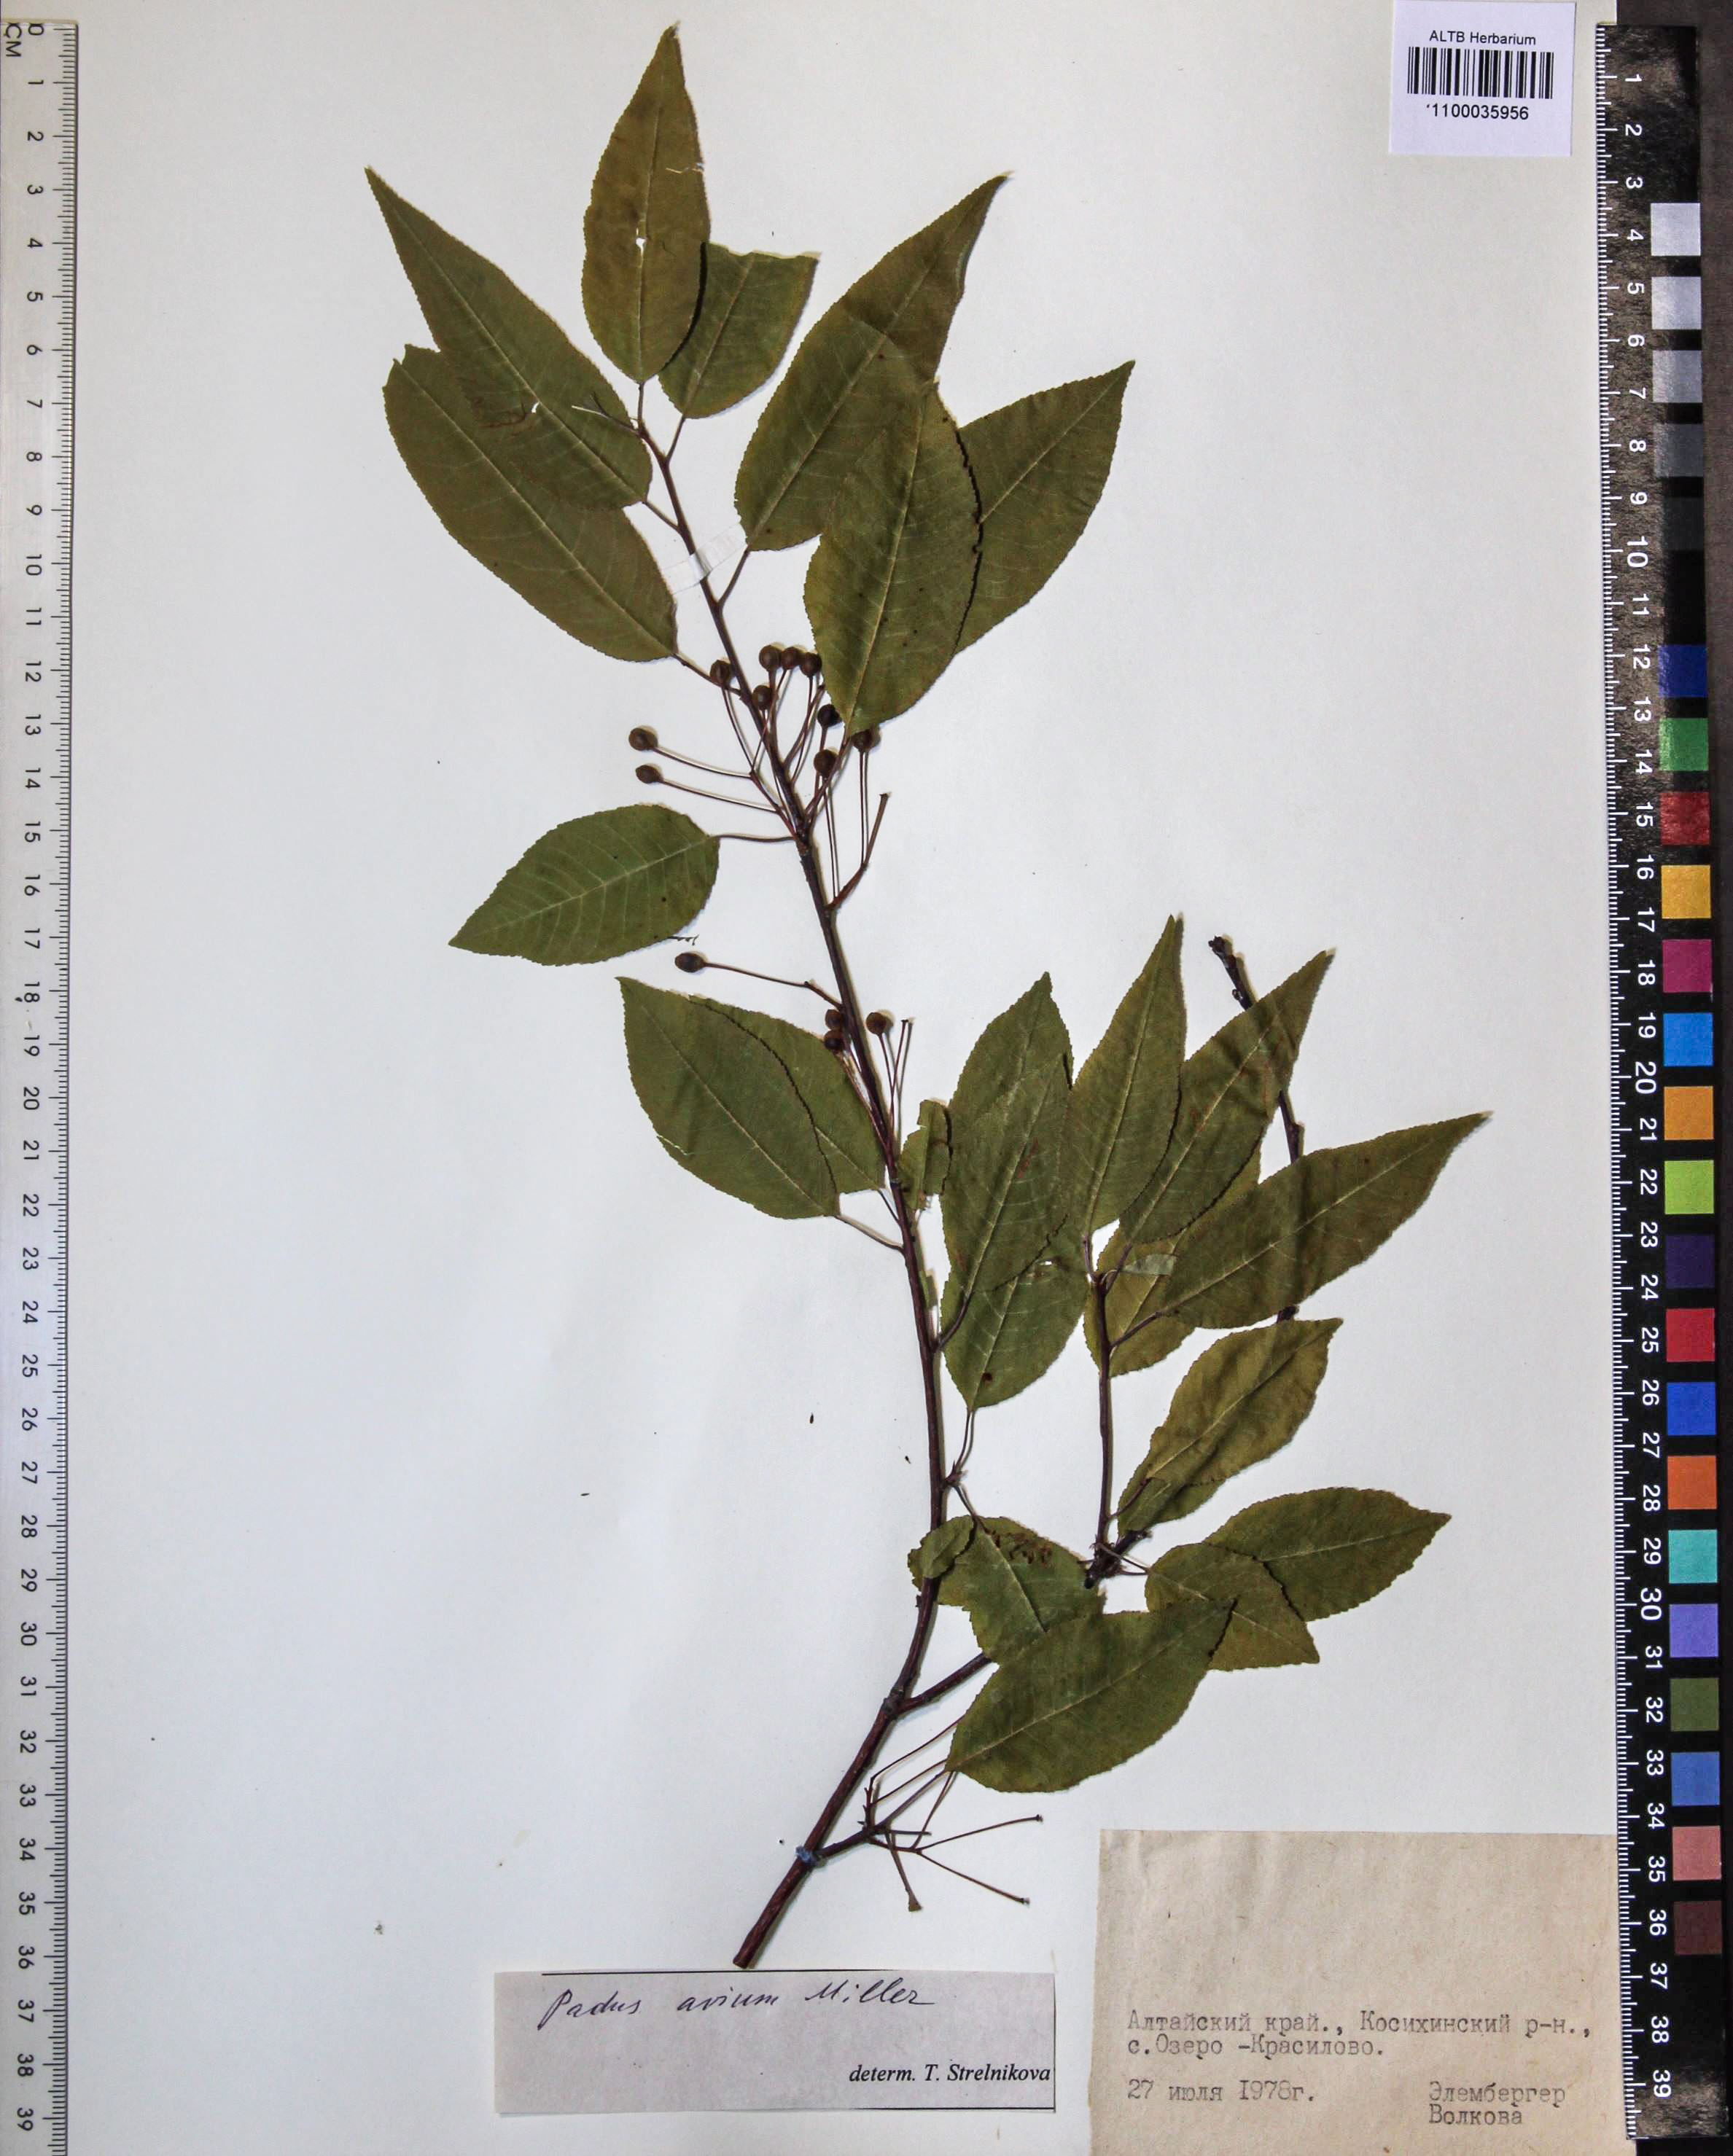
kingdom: Plantae
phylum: Tracheophyta
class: Magnoliopsida
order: Rosales
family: Rosaceae
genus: Prunus
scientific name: Prunus padus
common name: Bird cherry
